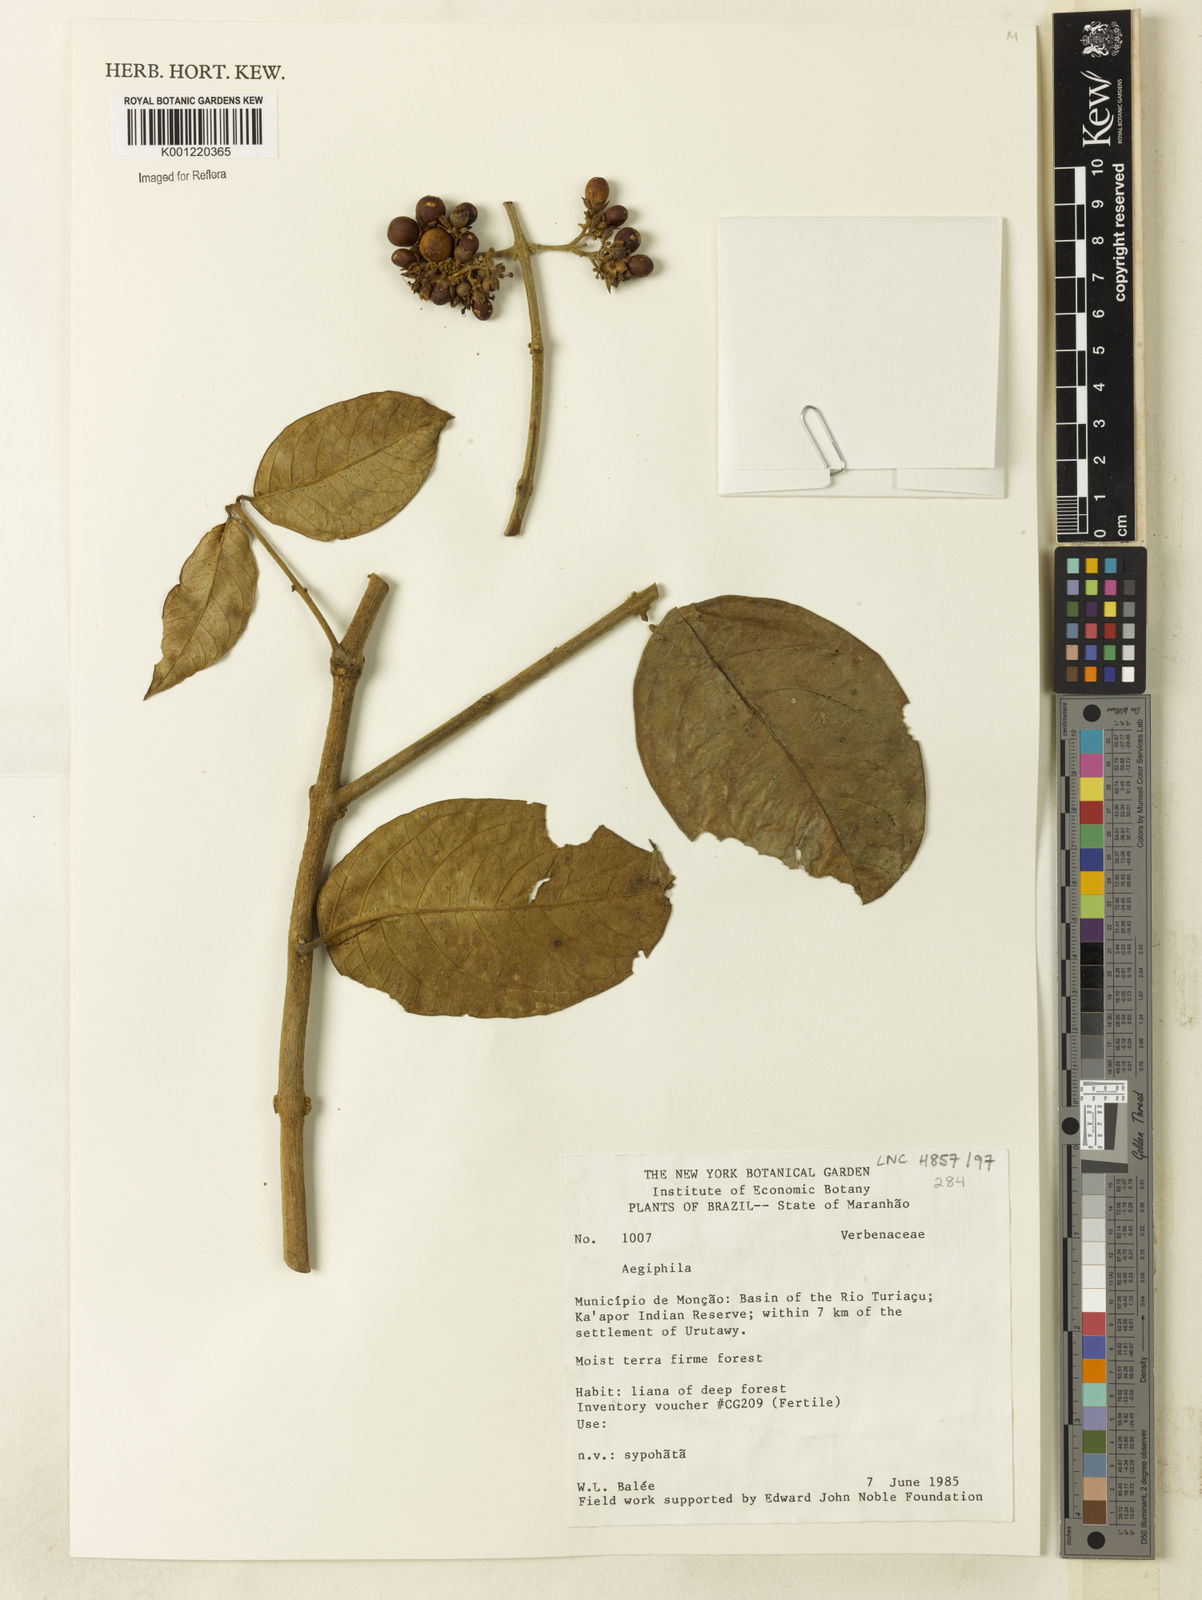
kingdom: Plantae
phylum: Tracheophyta
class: Magnoliopsida
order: Lamiales
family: Lamiaceae
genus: Aegiphila
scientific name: Aegiphila
